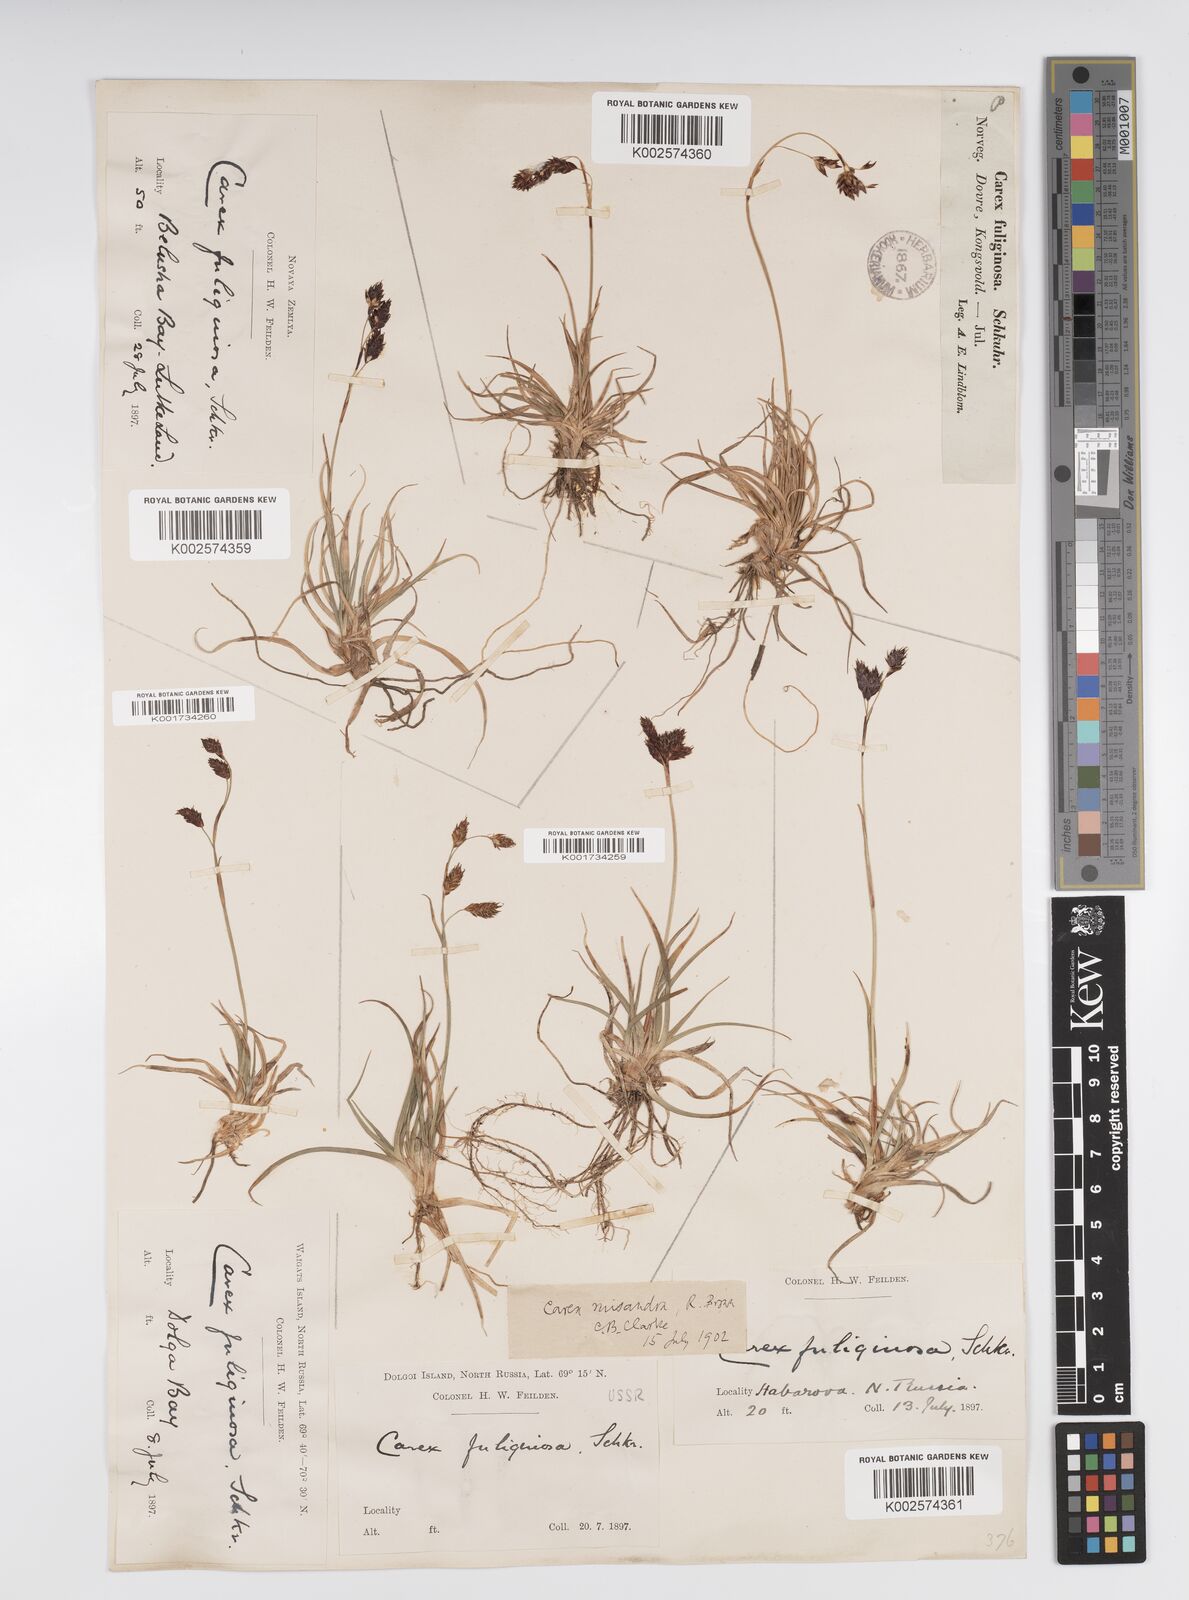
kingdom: Plantae
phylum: Tracheophyta
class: Liliopsida
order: Poales
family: Cyperaceae
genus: Carex
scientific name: Carex fuliginosa
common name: Few-flowered sedge
